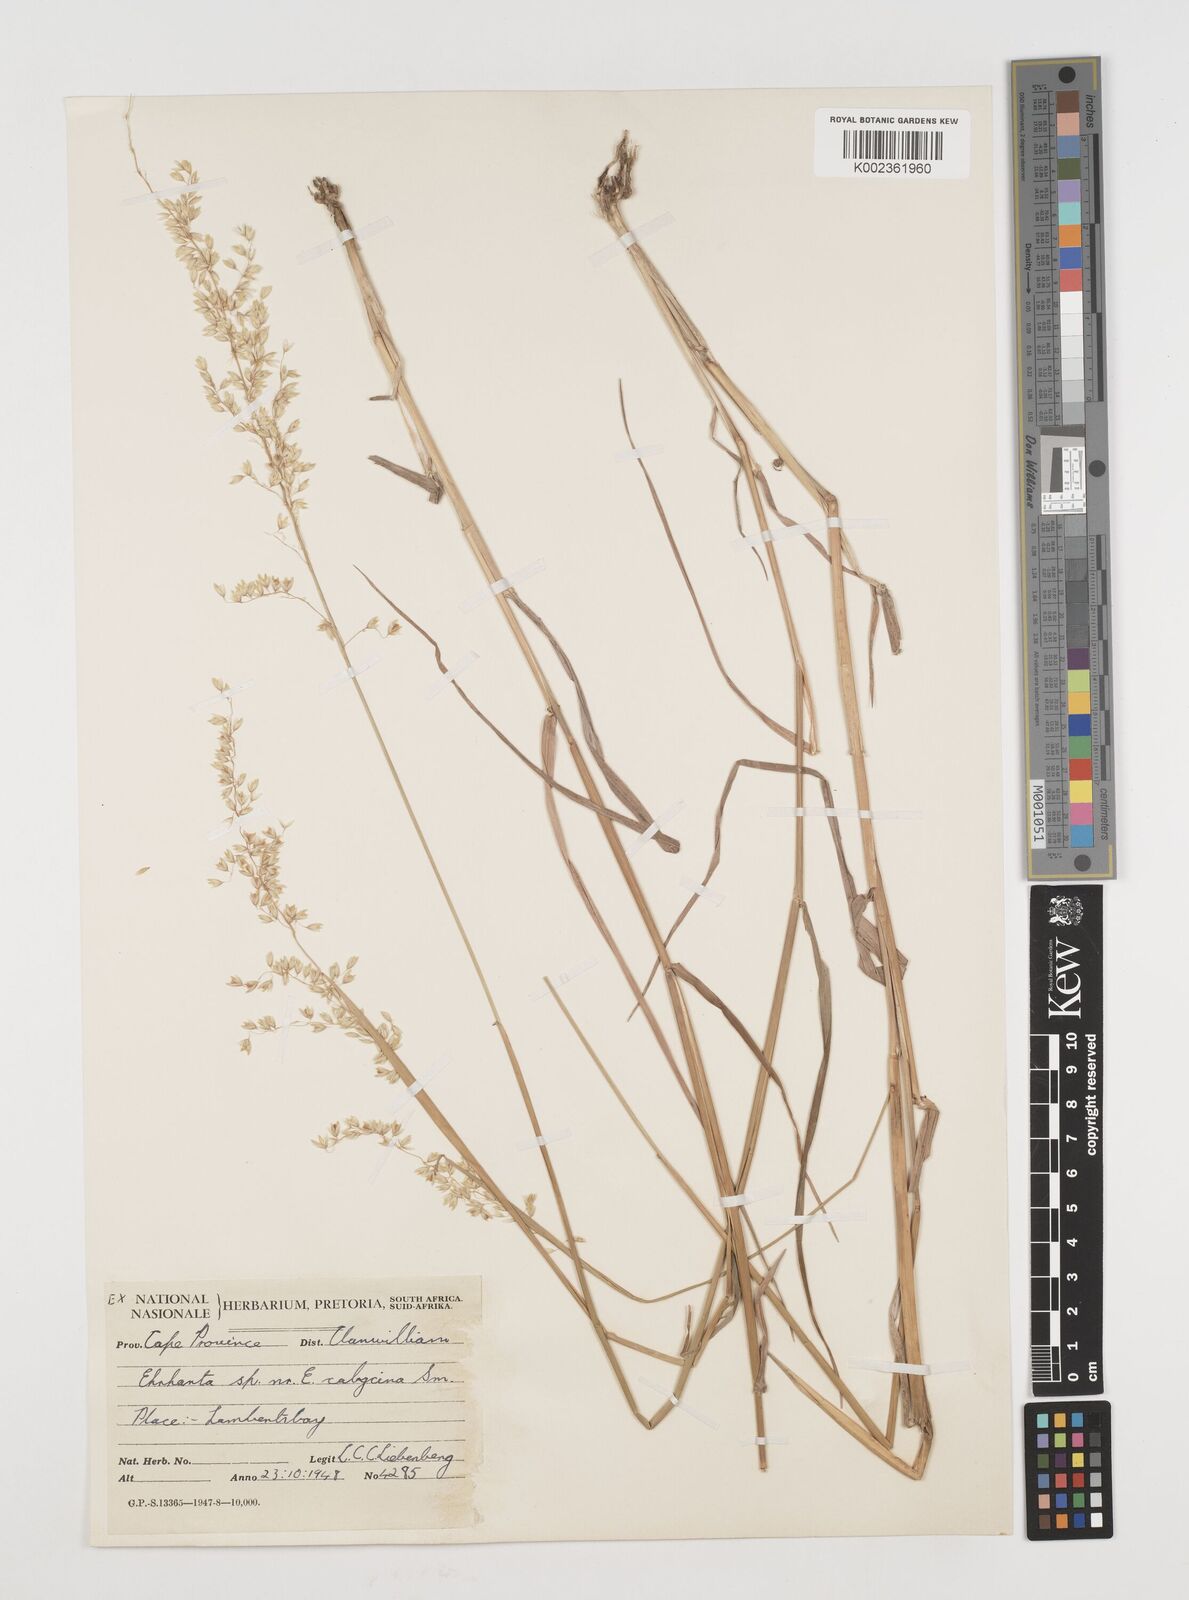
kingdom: Plantae
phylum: Tracheophyta
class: Liliopsida
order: Poales
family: Poaceae
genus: Ehrharta
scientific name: Ehrharta calycina
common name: Perennial veldtgrass
